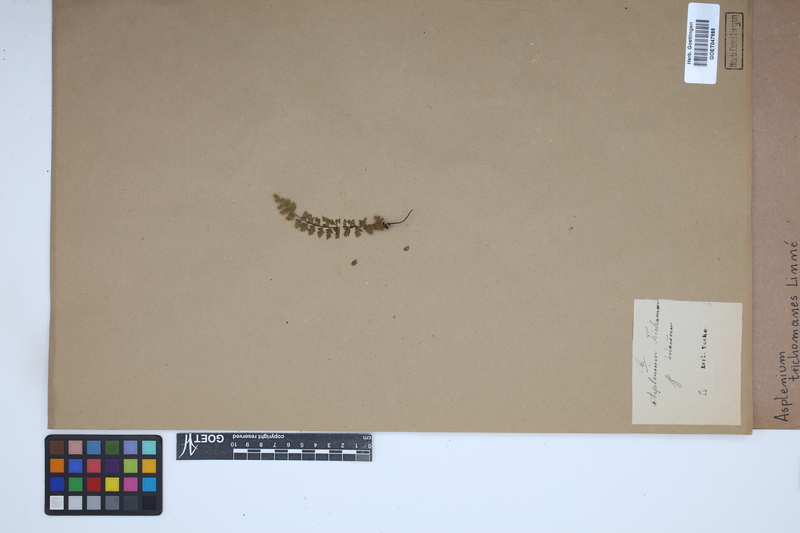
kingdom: Plantae
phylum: Tracheophyta
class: Polypodiopsida
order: Polypodiales
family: Aspleniaceae
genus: Asplenium
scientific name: Asplenium trichomanes
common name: Maidenhair spleenwort
